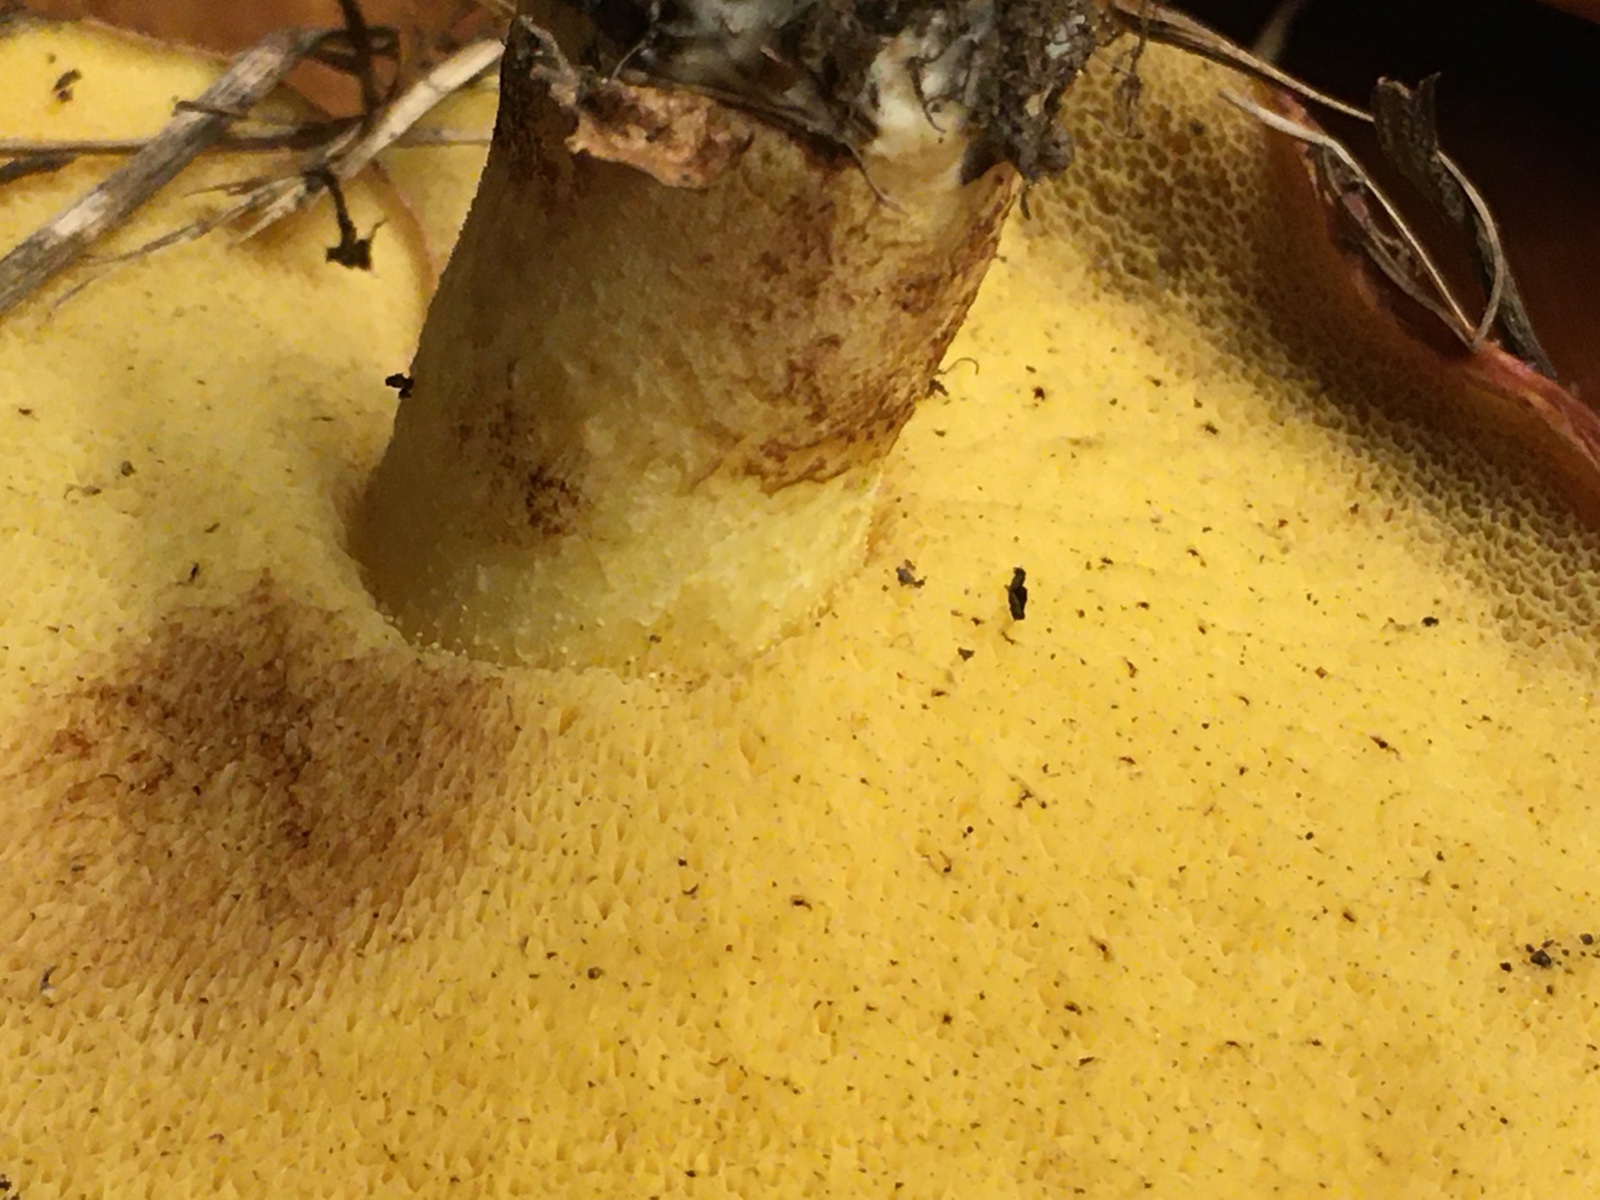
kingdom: Fungi
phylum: Basidiomycota
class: Agaricomycetes
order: Boletales
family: Suillaceae
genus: Suillus
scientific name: Suillus granulatus
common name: kornet slimrørhat
